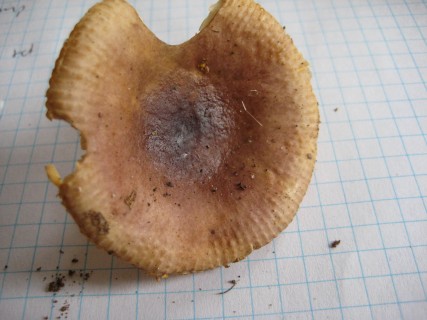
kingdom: Fungi
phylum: Basidiomycota
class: Agaricomycetes
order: Russulales
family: Russulaceae
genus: Russula
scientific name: Russula puellaris
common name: gulstokket skørhat
